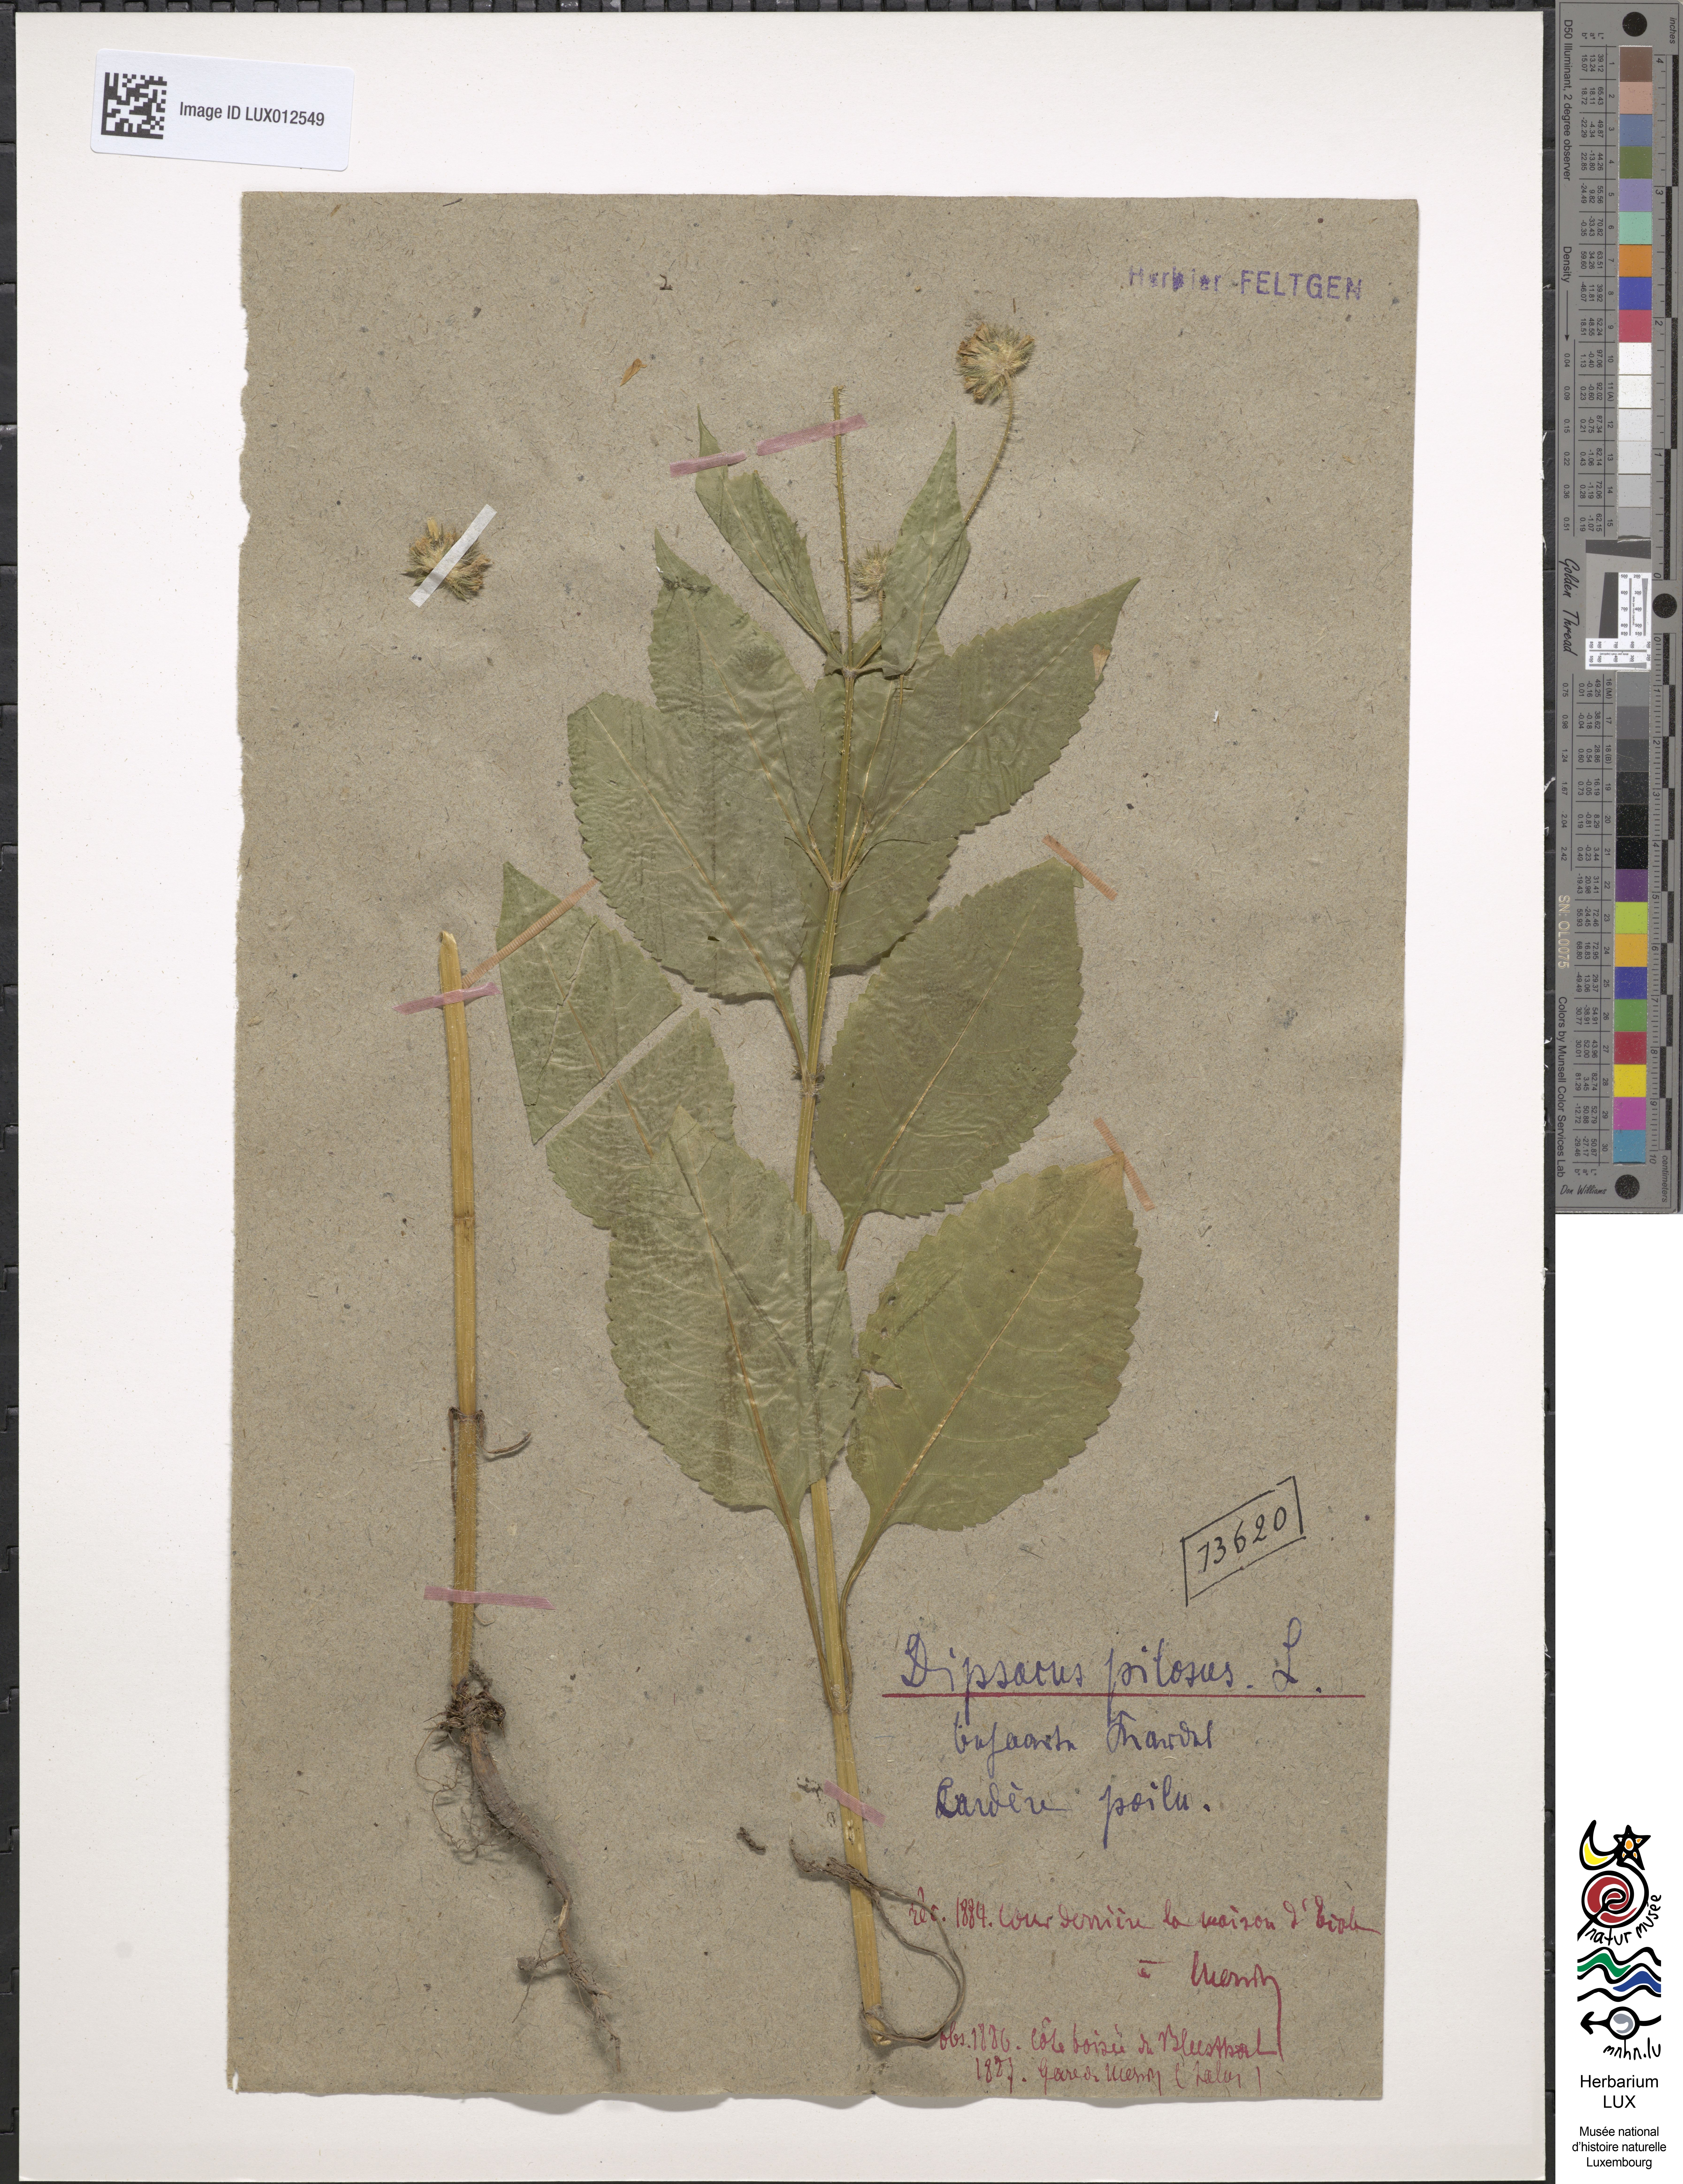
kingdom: Plantae
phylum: Tracheophyta
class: Magnoliopsida
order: Dipsacales
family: Caprifoliaceae
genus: Dipsacus
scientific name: Dipsacus pilosus
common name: Small teasel
